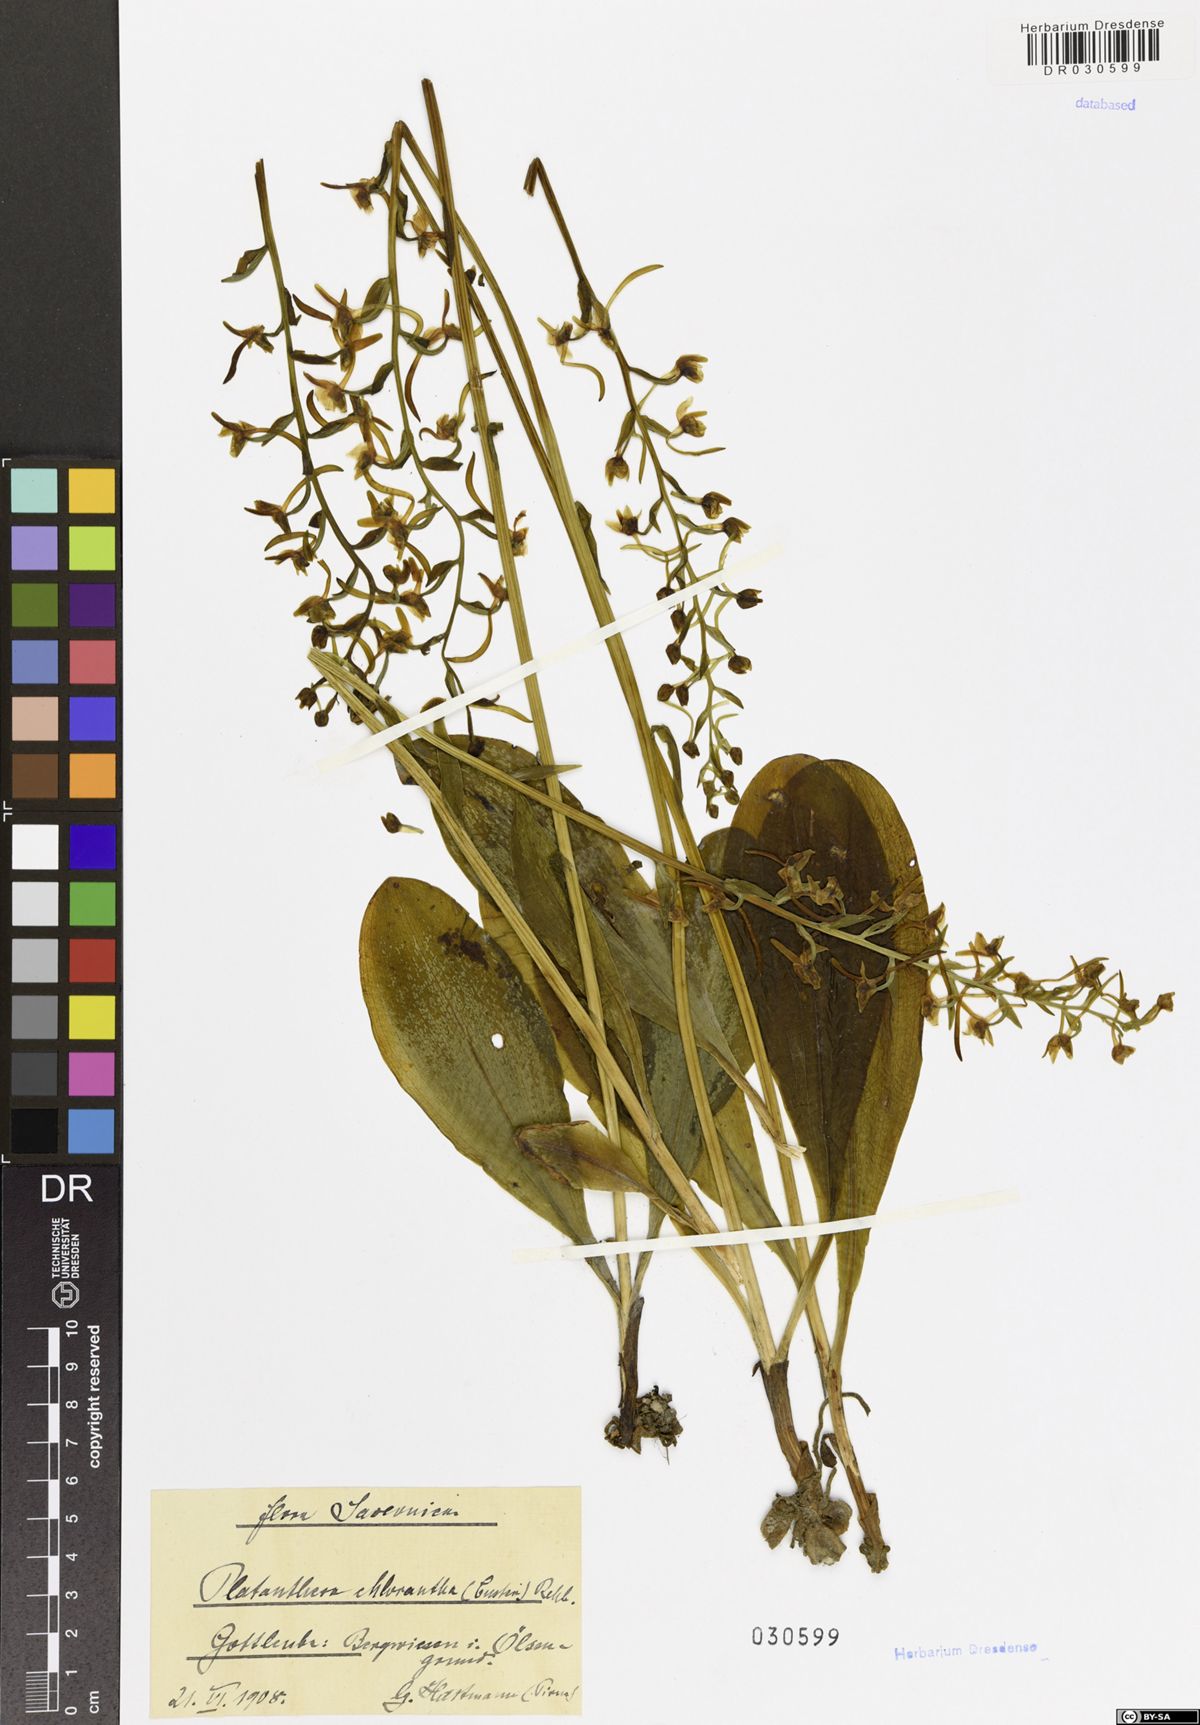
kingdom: Plantae
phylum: Tracheophyta
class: Liliopsida
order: Asparagales
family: Orchidaceae
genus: Platanthera
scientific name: Platanthera chlorantha
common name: Greater butterfly-orchid
